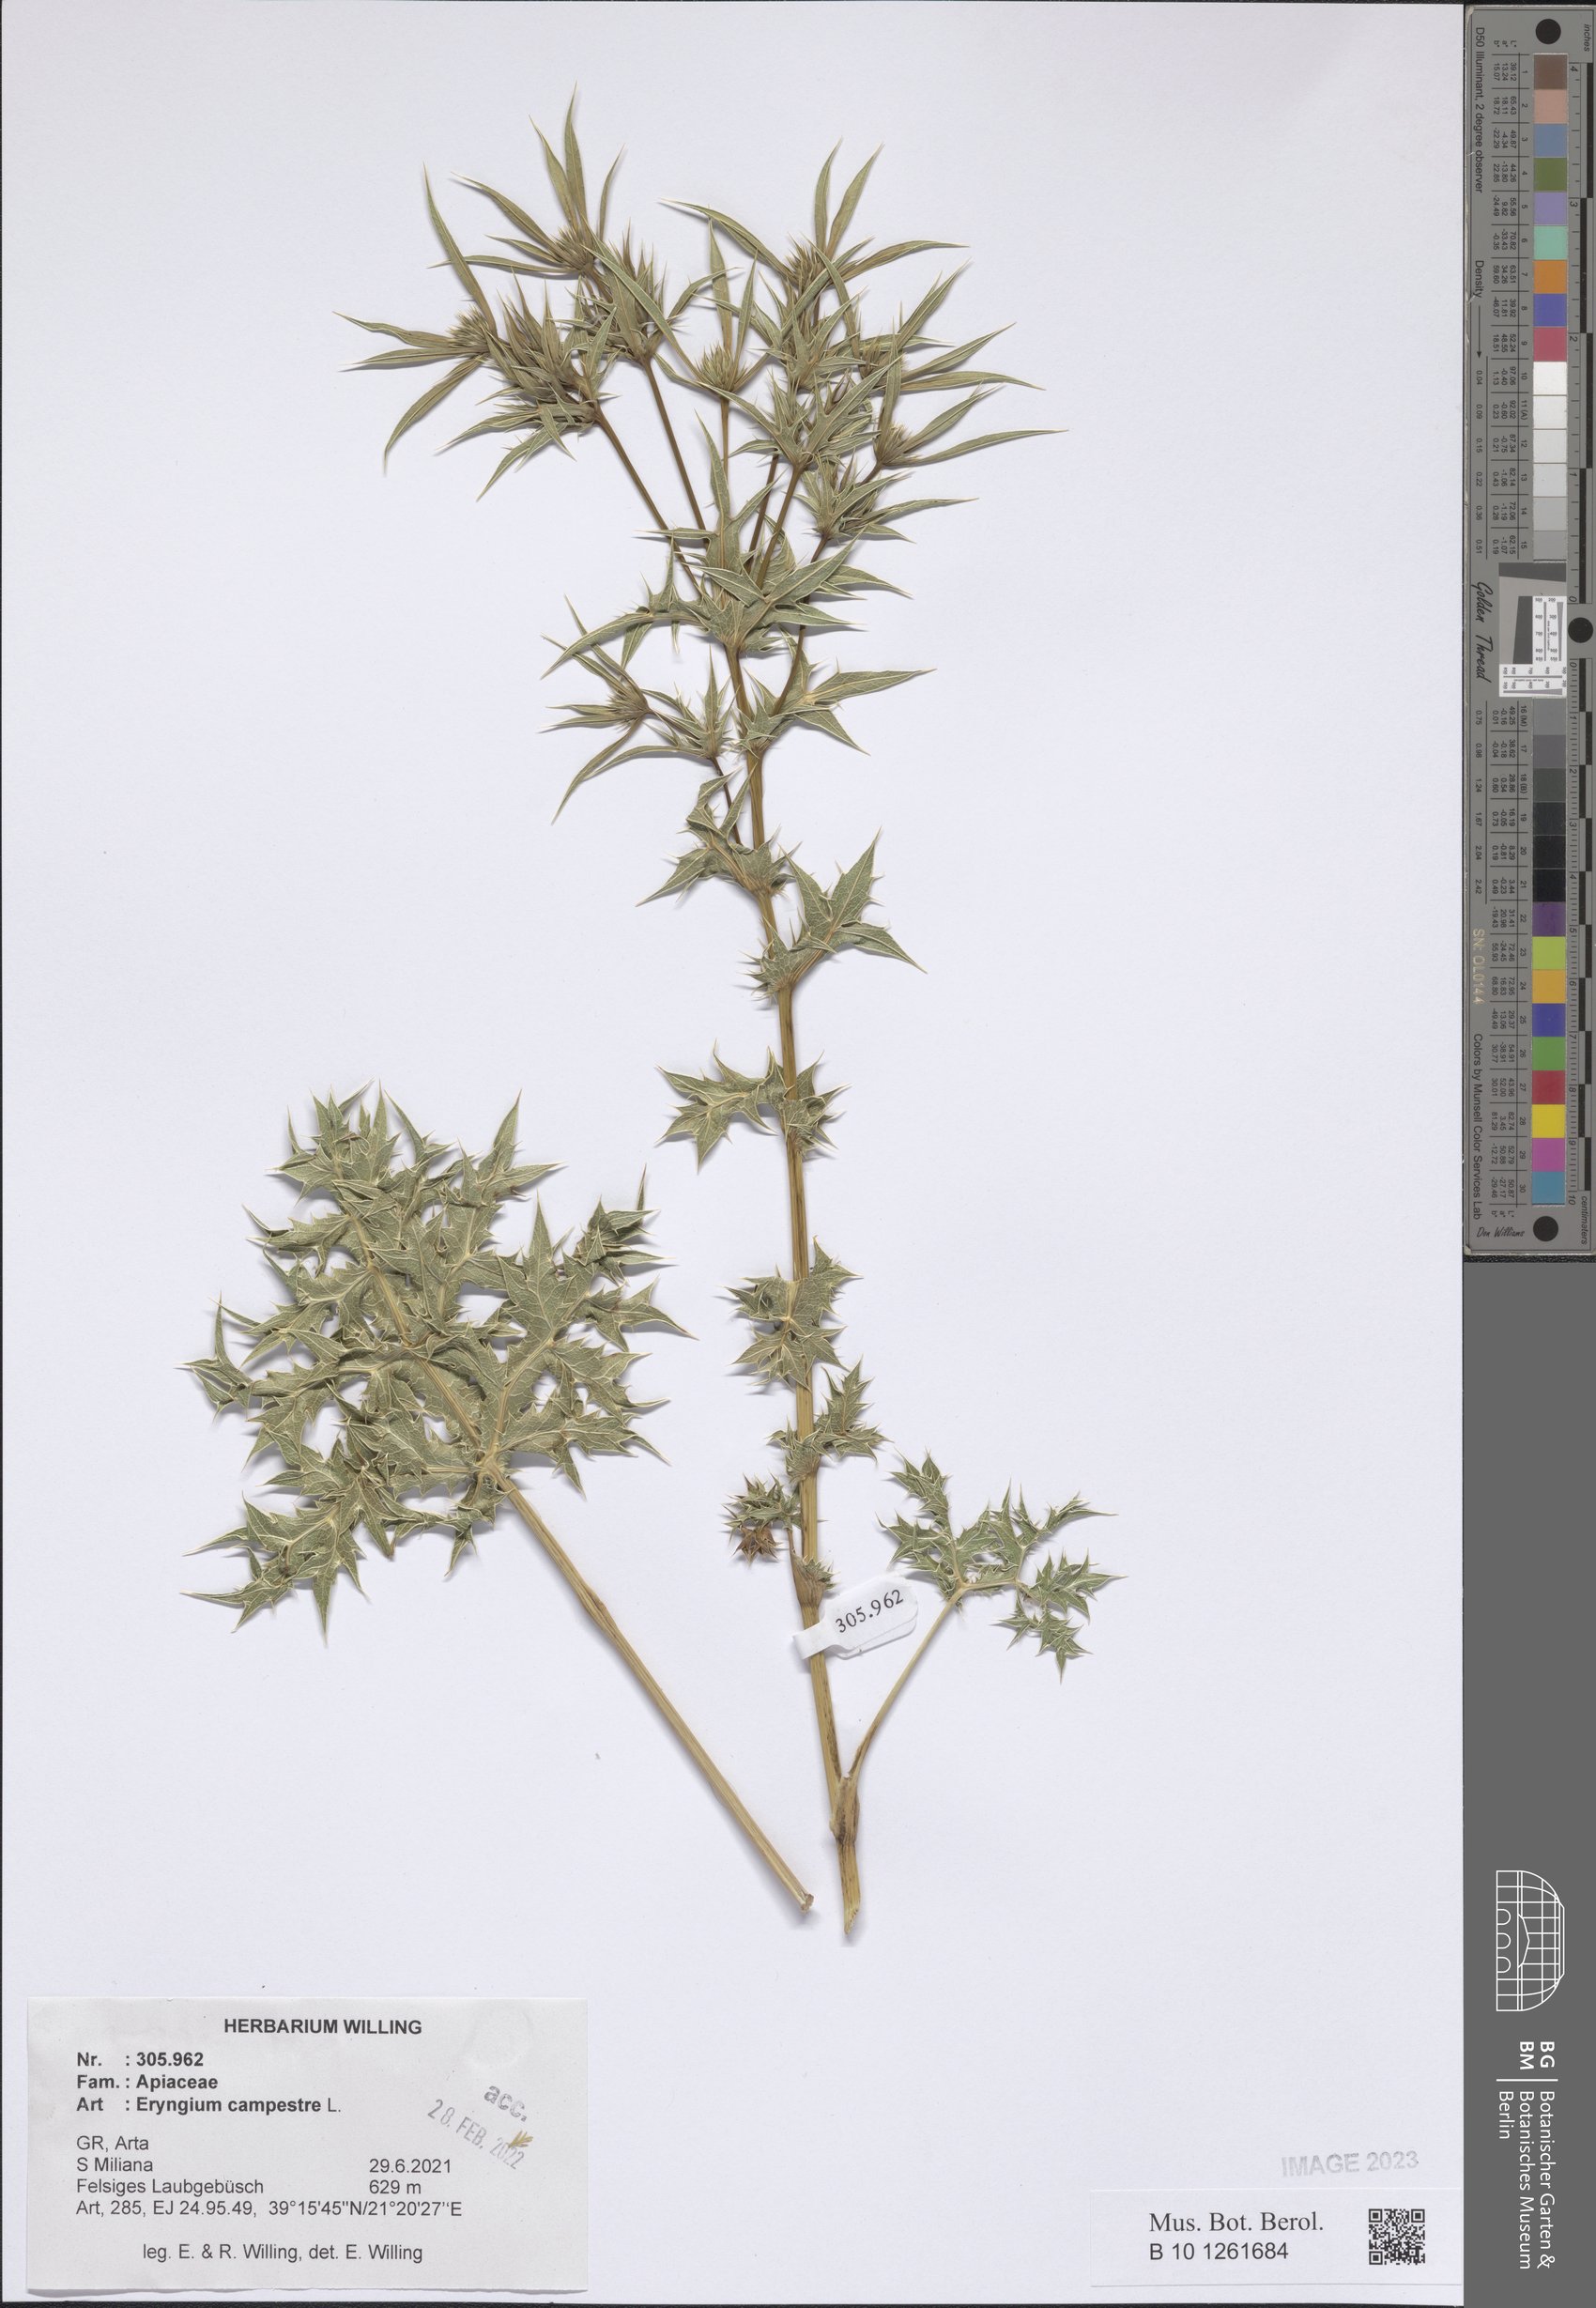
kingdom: Plantae
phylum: Tracheophyta
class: Magnoliopsida
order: Apiales
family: Apiaceae
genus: Eryngium
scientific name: Eryngium campestre
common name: Field eryngo
